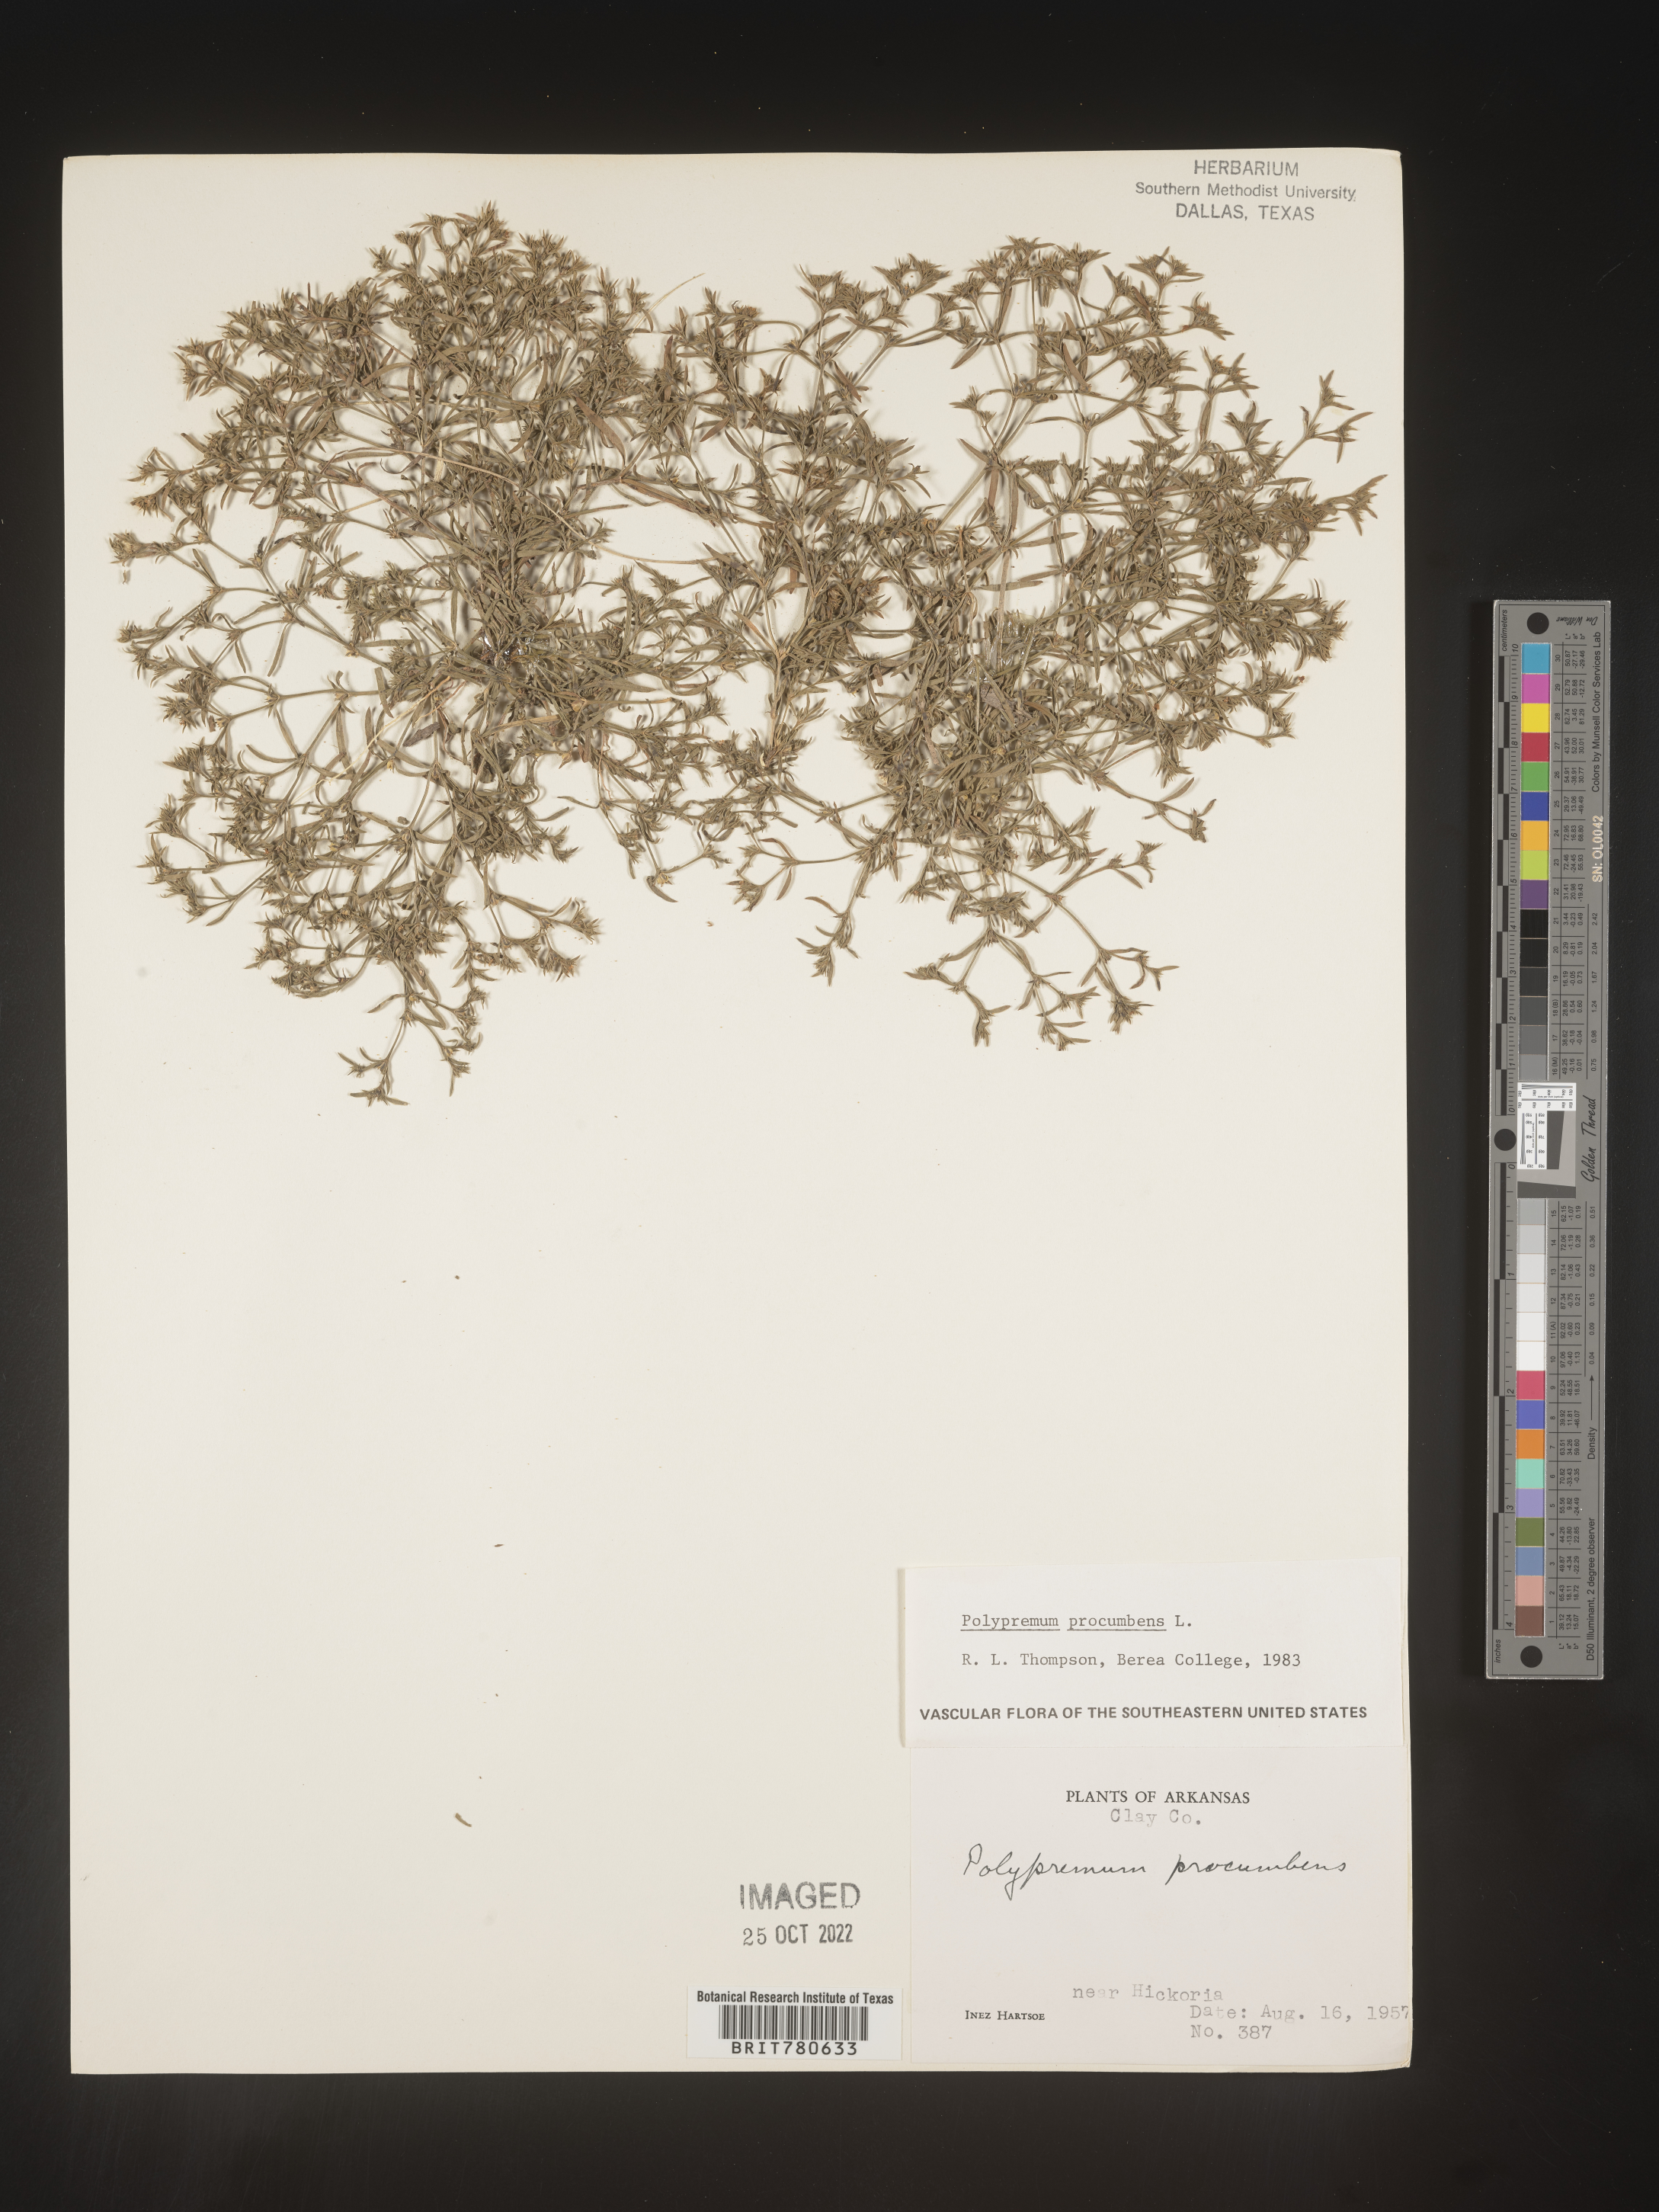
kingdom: Plantae
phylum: Tracheophyta
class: Magnoliopsida
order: Lamiales
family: Tetrachondraceae
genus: Polypremum
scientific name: Polypremum procumbens
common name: Juniper-leaf
